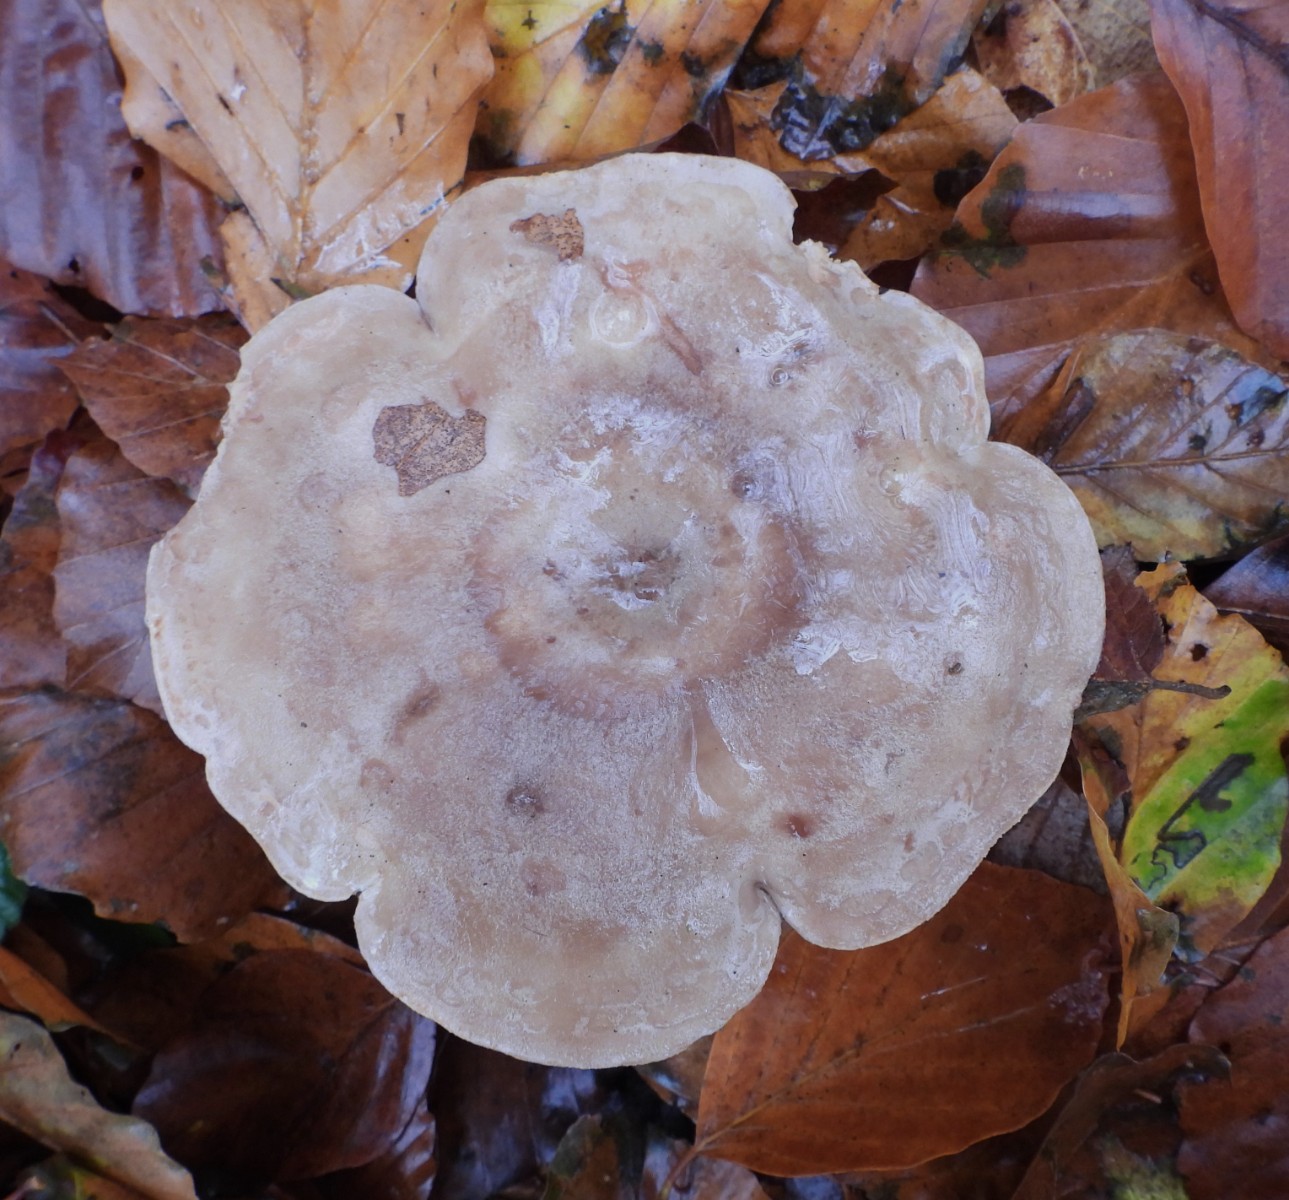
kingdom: Fungi
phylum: Basidiomycota
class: Agaricomycetes
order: Russulales
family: Russulaceae
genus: Lactarius
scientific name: Lactarius fluens
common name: lysrandet mælkehat
